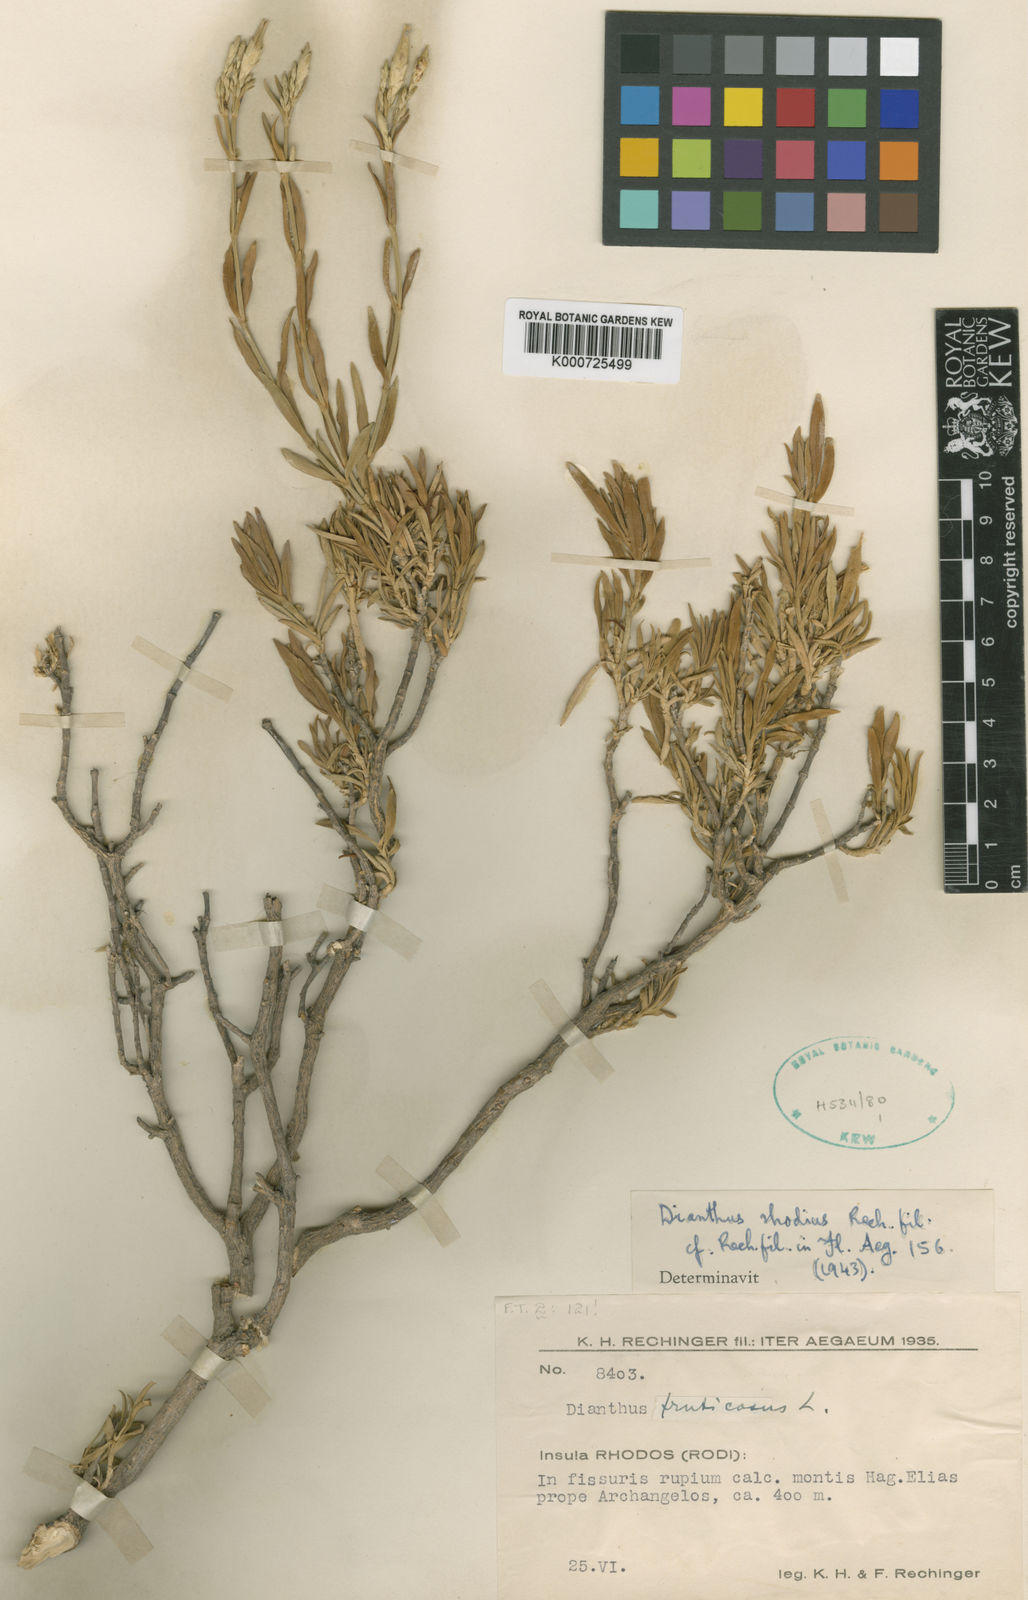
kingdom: Plantae
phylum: Tracheophyta
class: Magnoliopsida
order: Caryophyllales
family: Caryophyllaceae
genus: Dianthus
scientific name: Dianthus fruticosus
